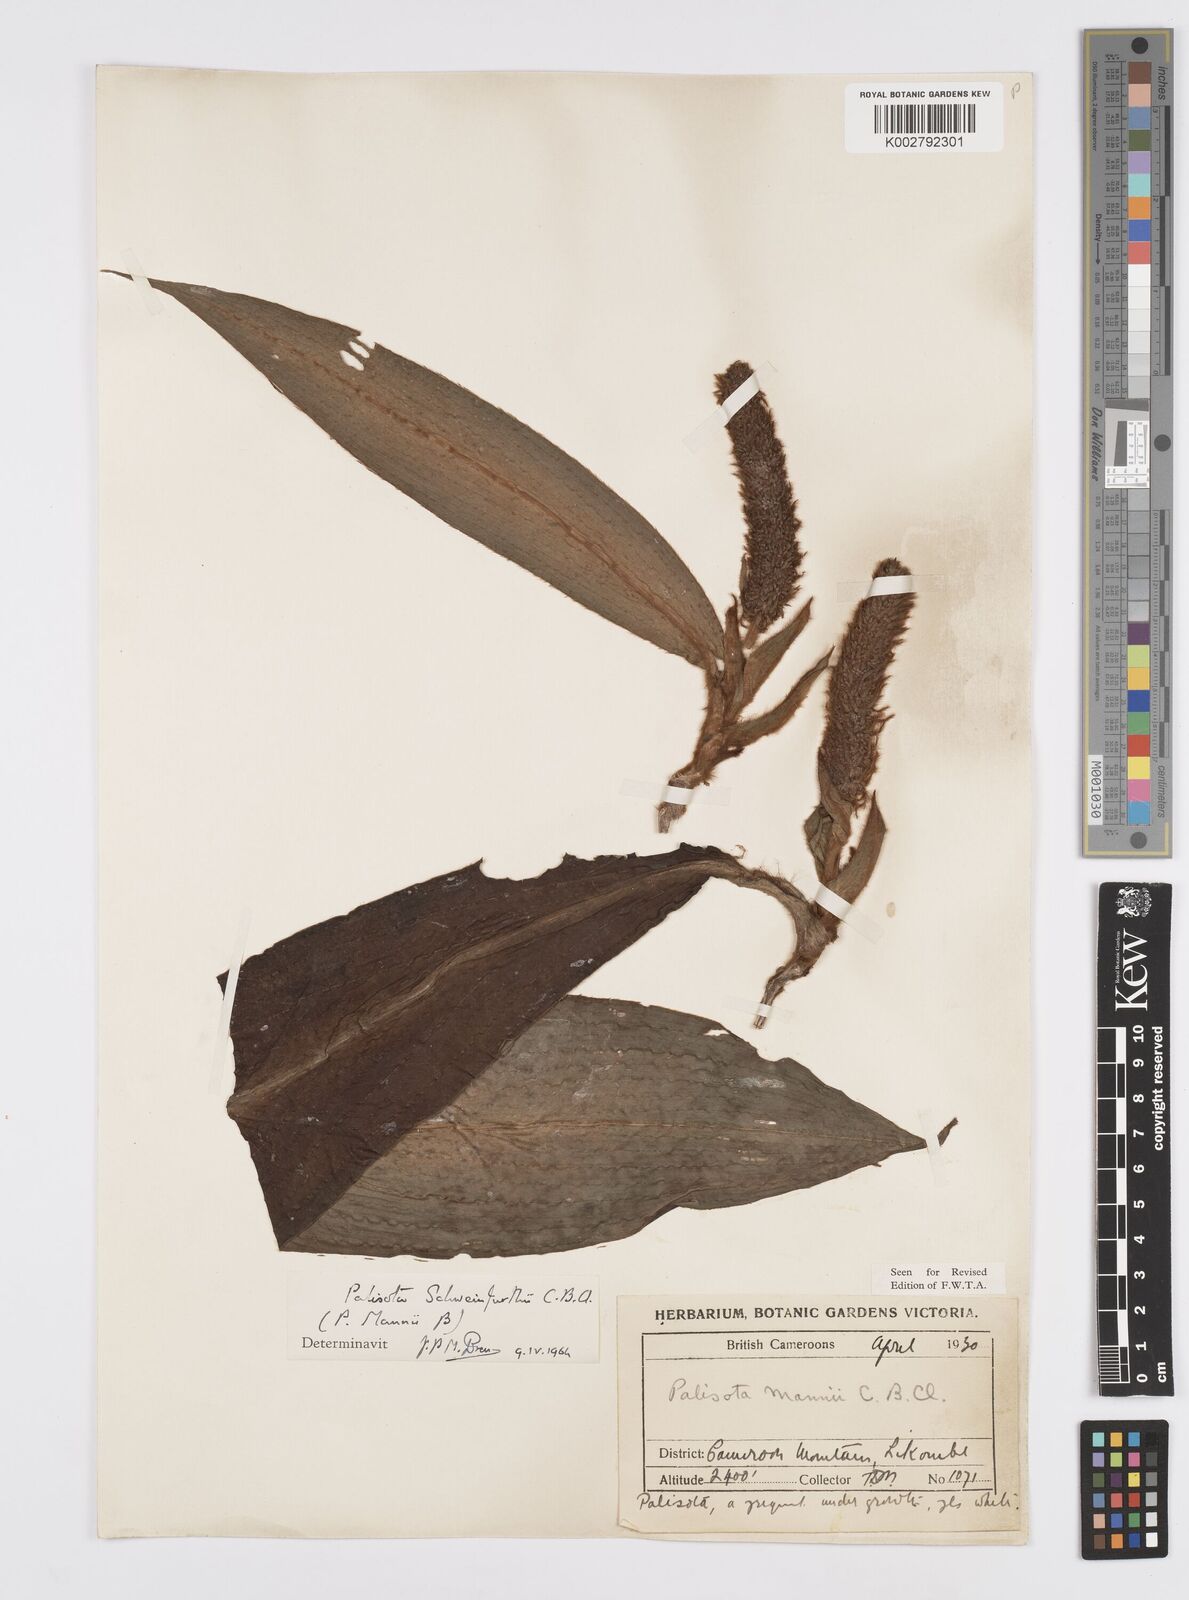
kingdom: Plantae
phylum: Tracheophyta
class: Liliopsida
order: Commelinales
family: Commelinaceae
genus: Palisota
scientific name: Palisota schweinfurthii
